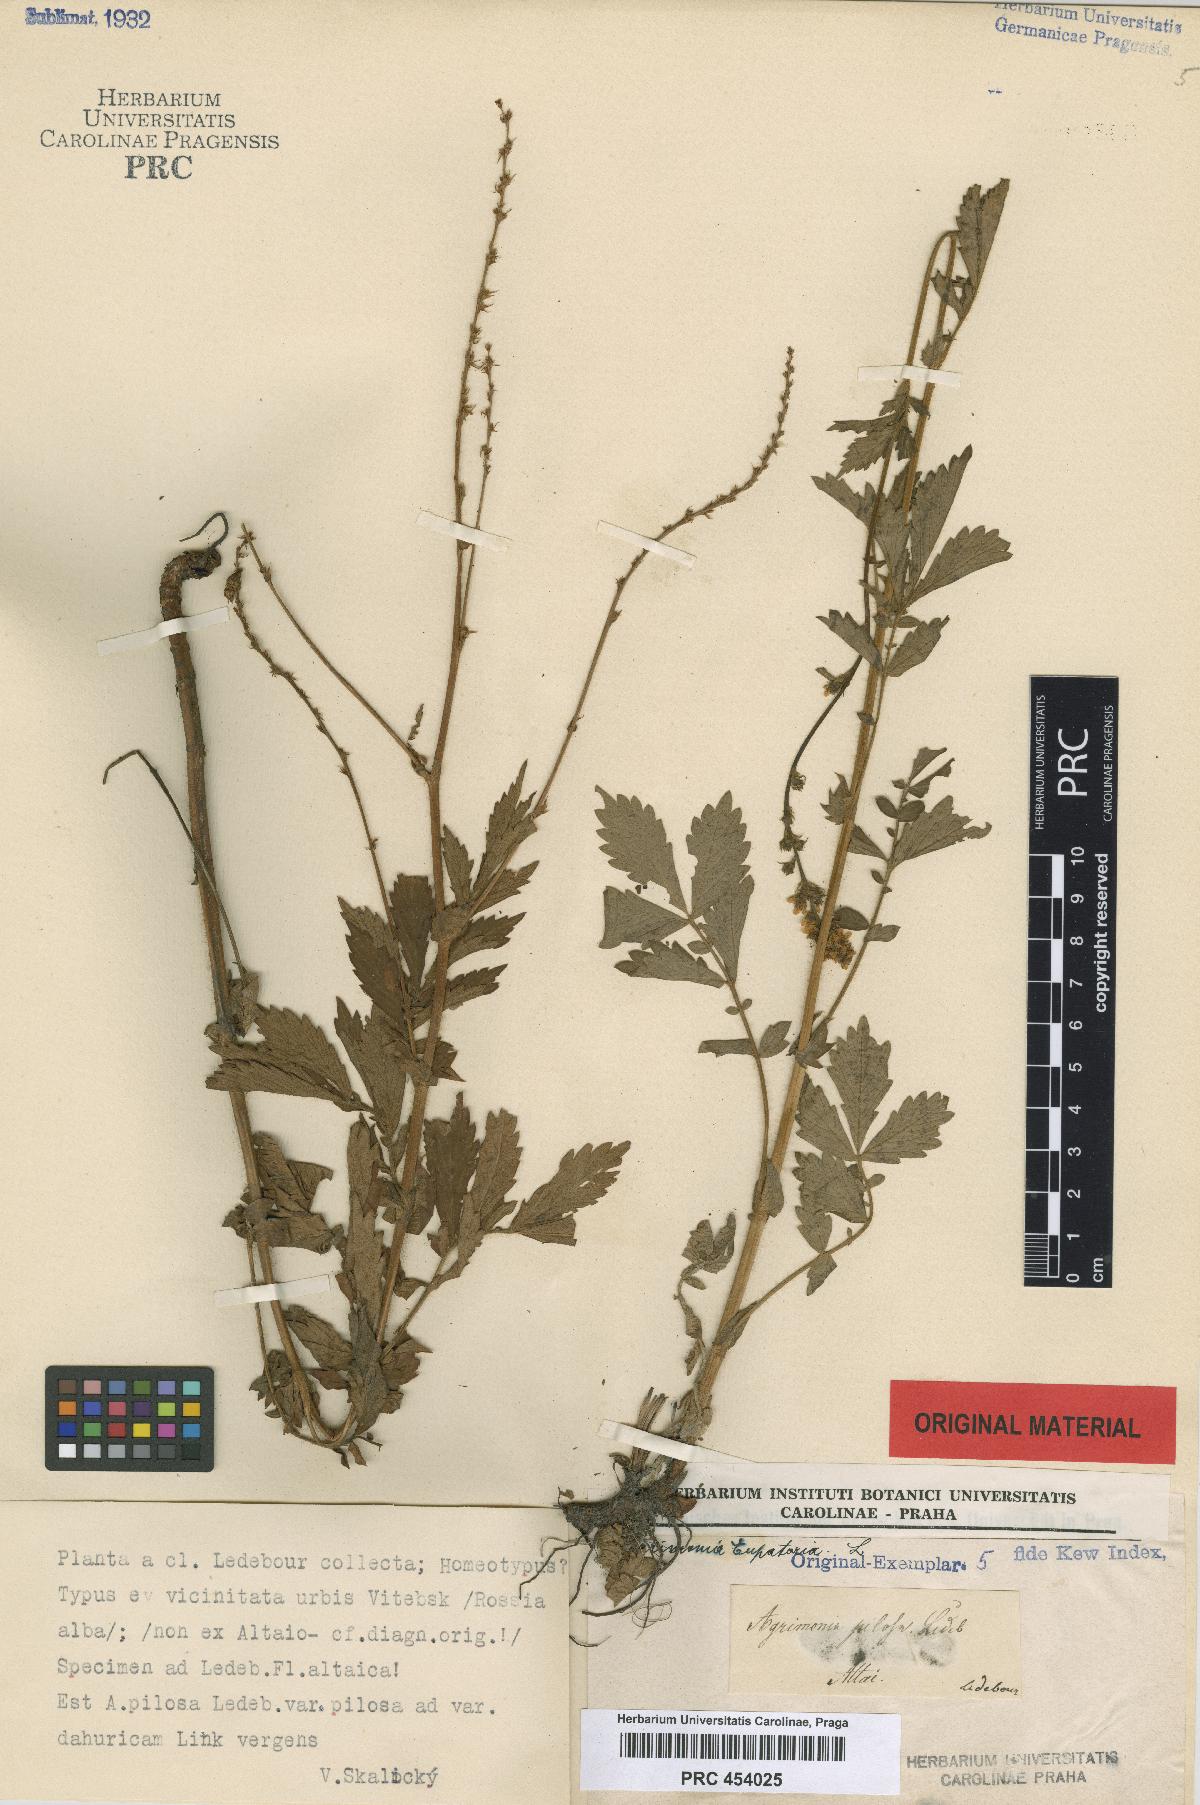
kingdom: Plantae
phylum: Tracheophyta
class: Magnoliopsida
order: Rosales
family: Rosaceae
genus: Agrimonia
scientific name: Agrimonia pilosa
